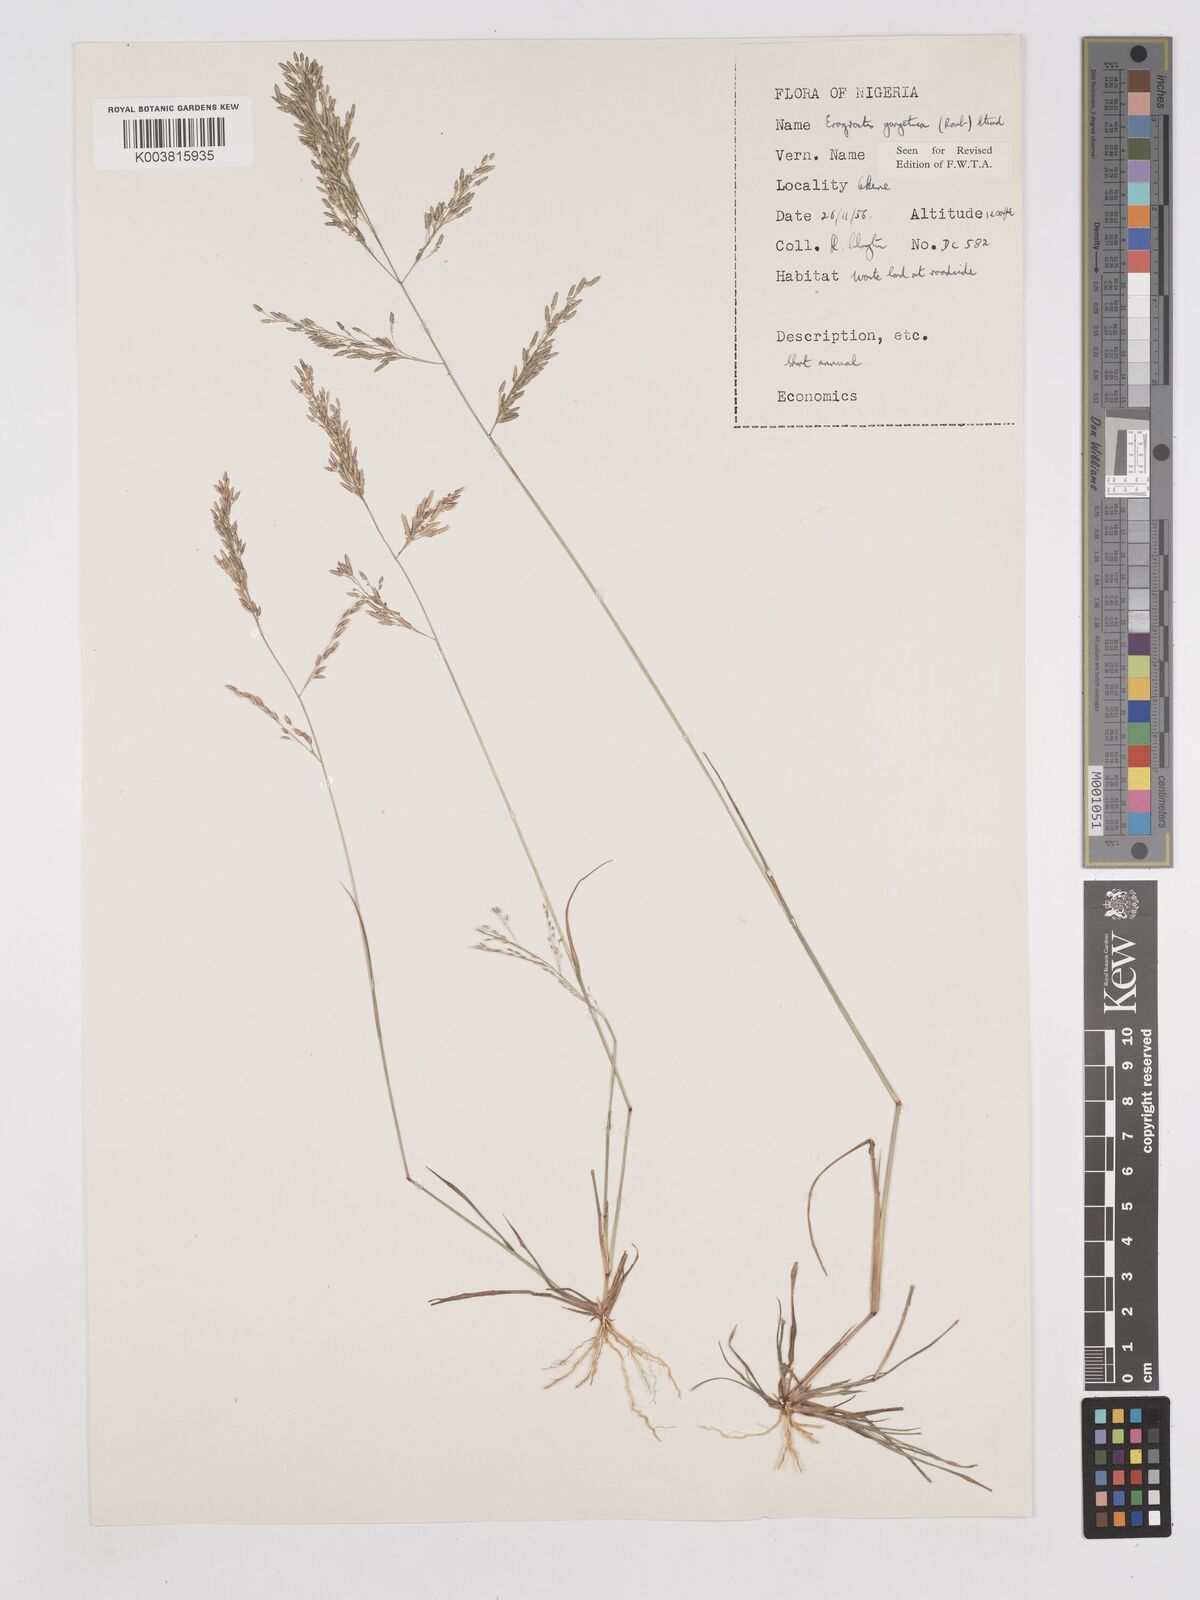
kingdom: Plantae
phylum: Tracheophyta
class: Liliopsida
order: Poales
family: Poaceae
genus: Eragrostis
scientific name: Eragrostis gangetica
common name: Slimflower lovegrass
